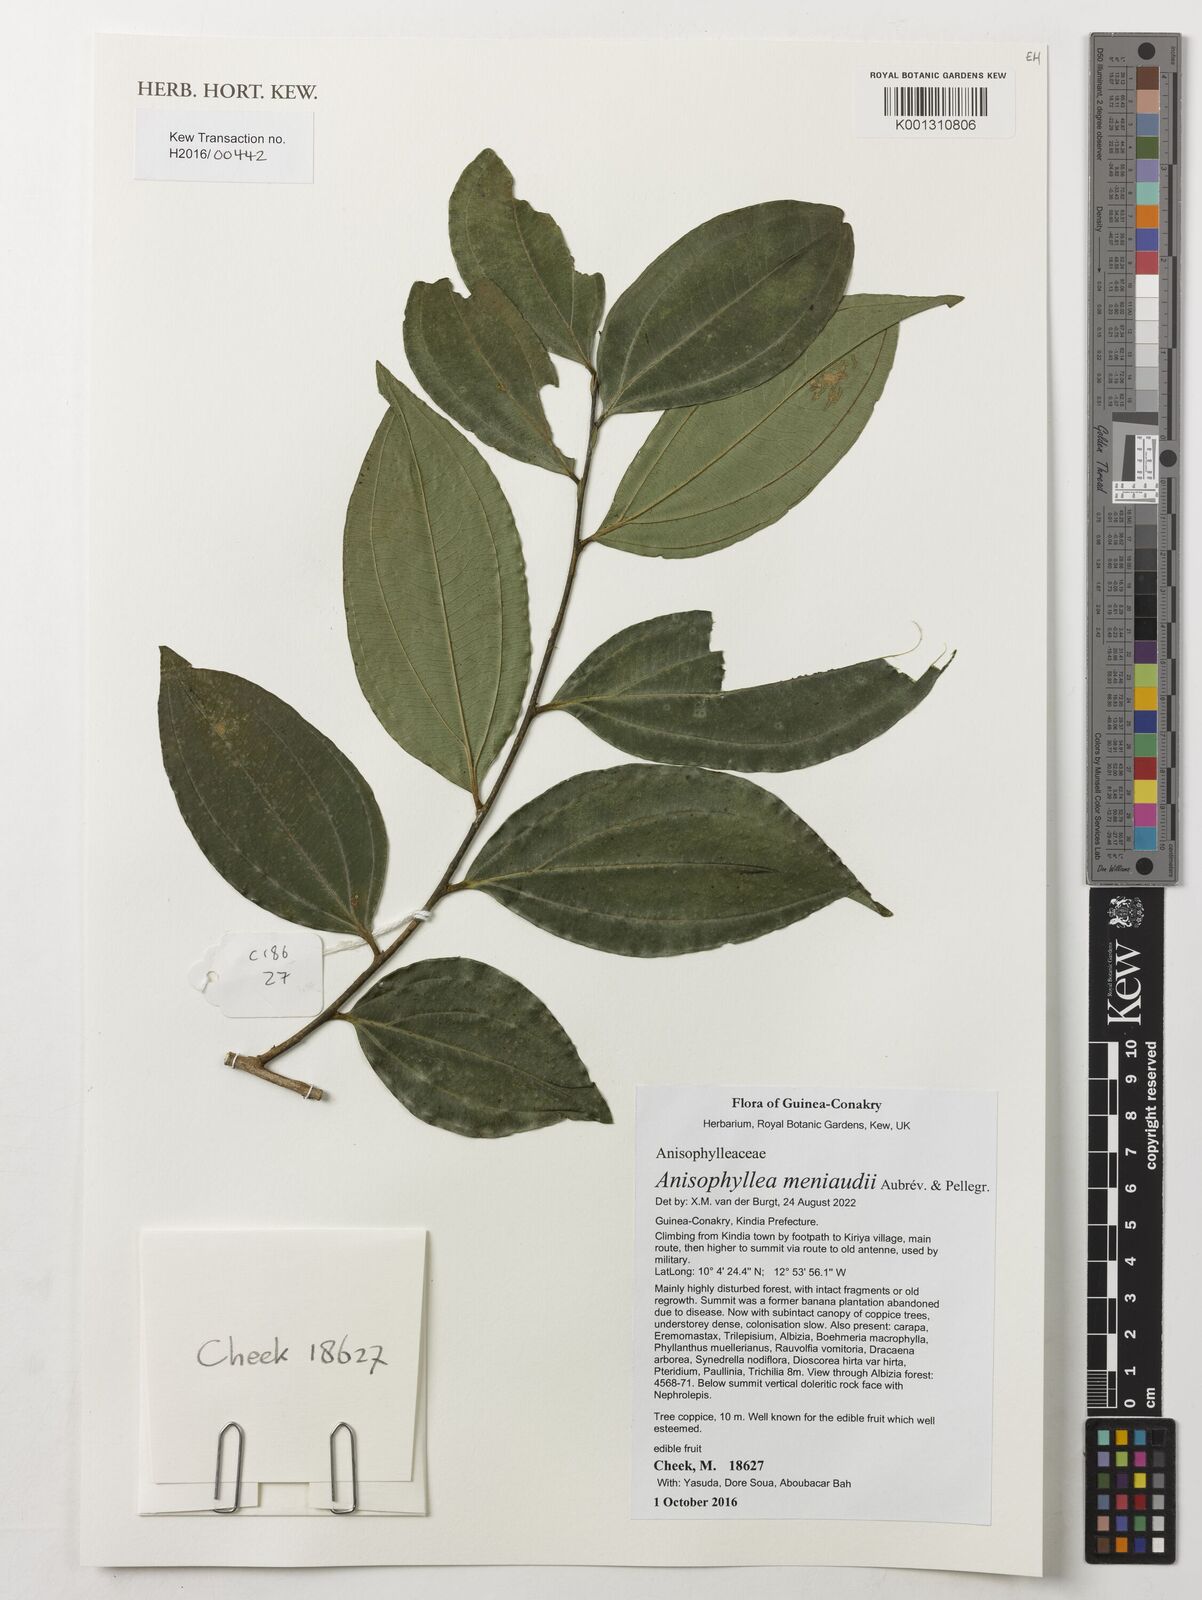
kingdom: Plantae
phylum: Tracheophyta
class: Magnoliopsida
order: Cucurbitales
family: Anisophylleaceae
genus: Anisophyllea
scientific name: Anisophyllea meniaudii
